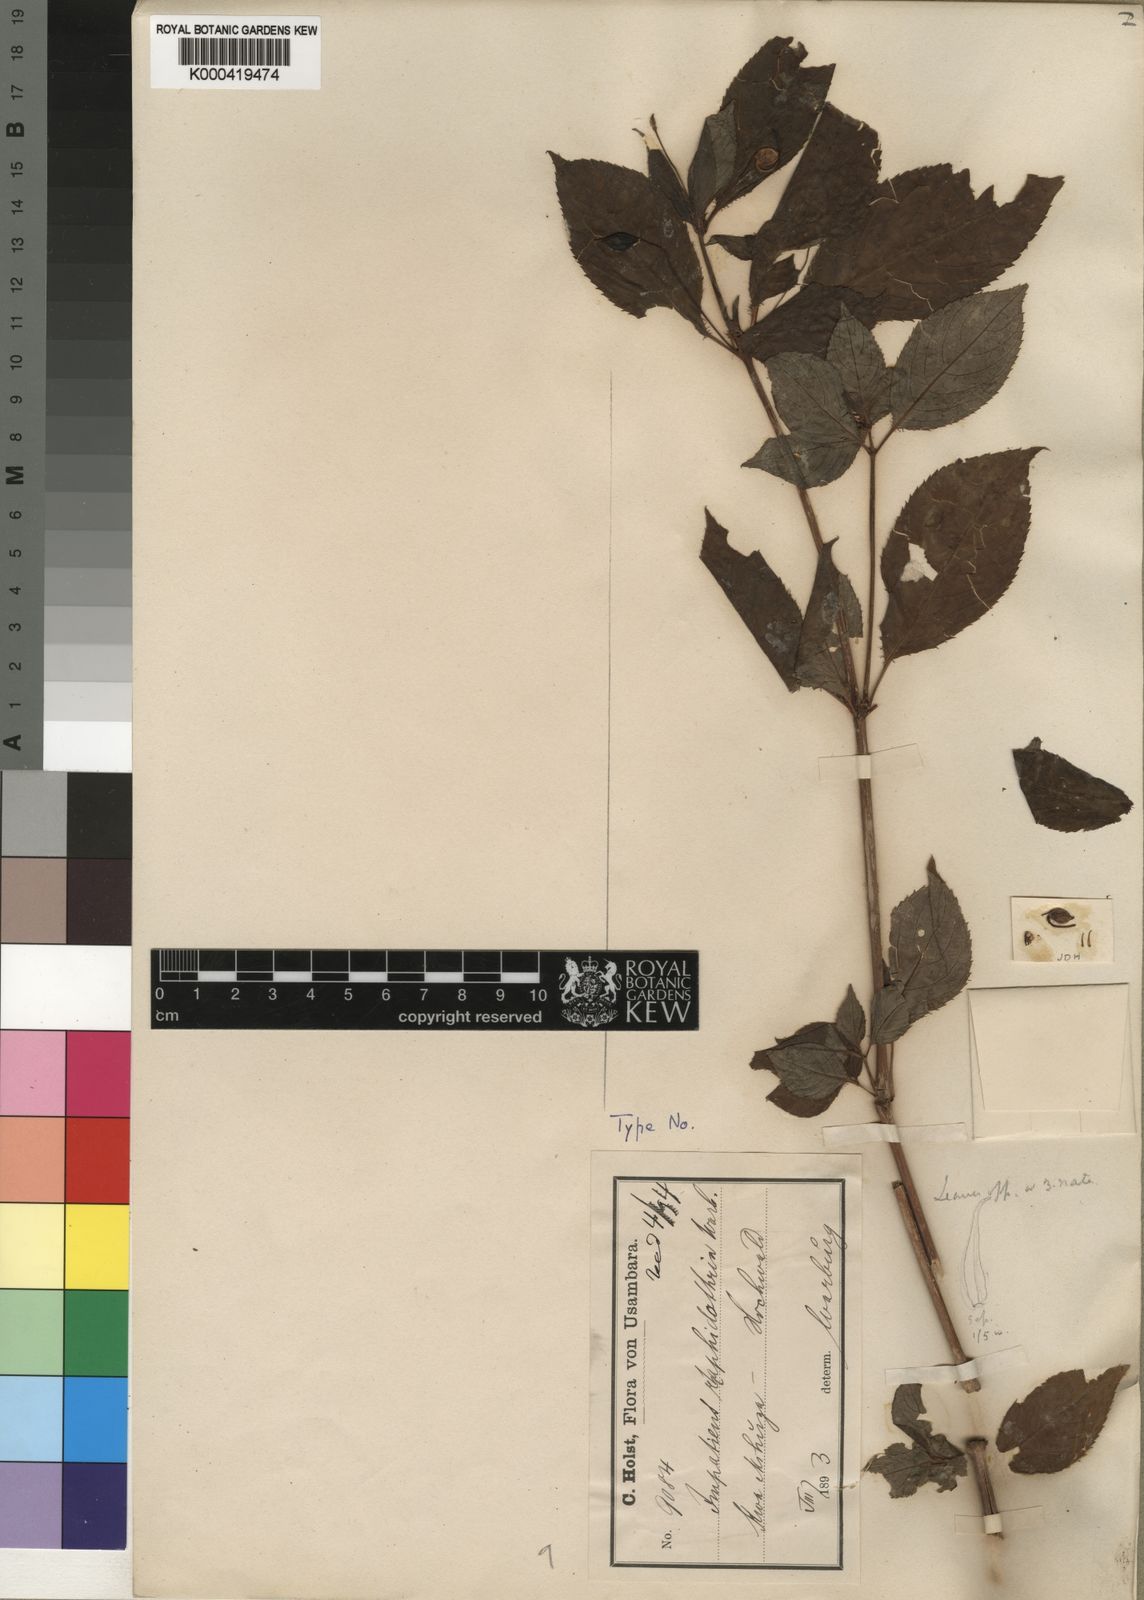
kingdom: Plantae
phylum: Tracheophyta
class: Magnoliopsida
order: Ericales
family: Balsaminaceae
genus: Impatiens
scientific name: Impatiens raphidothrix
